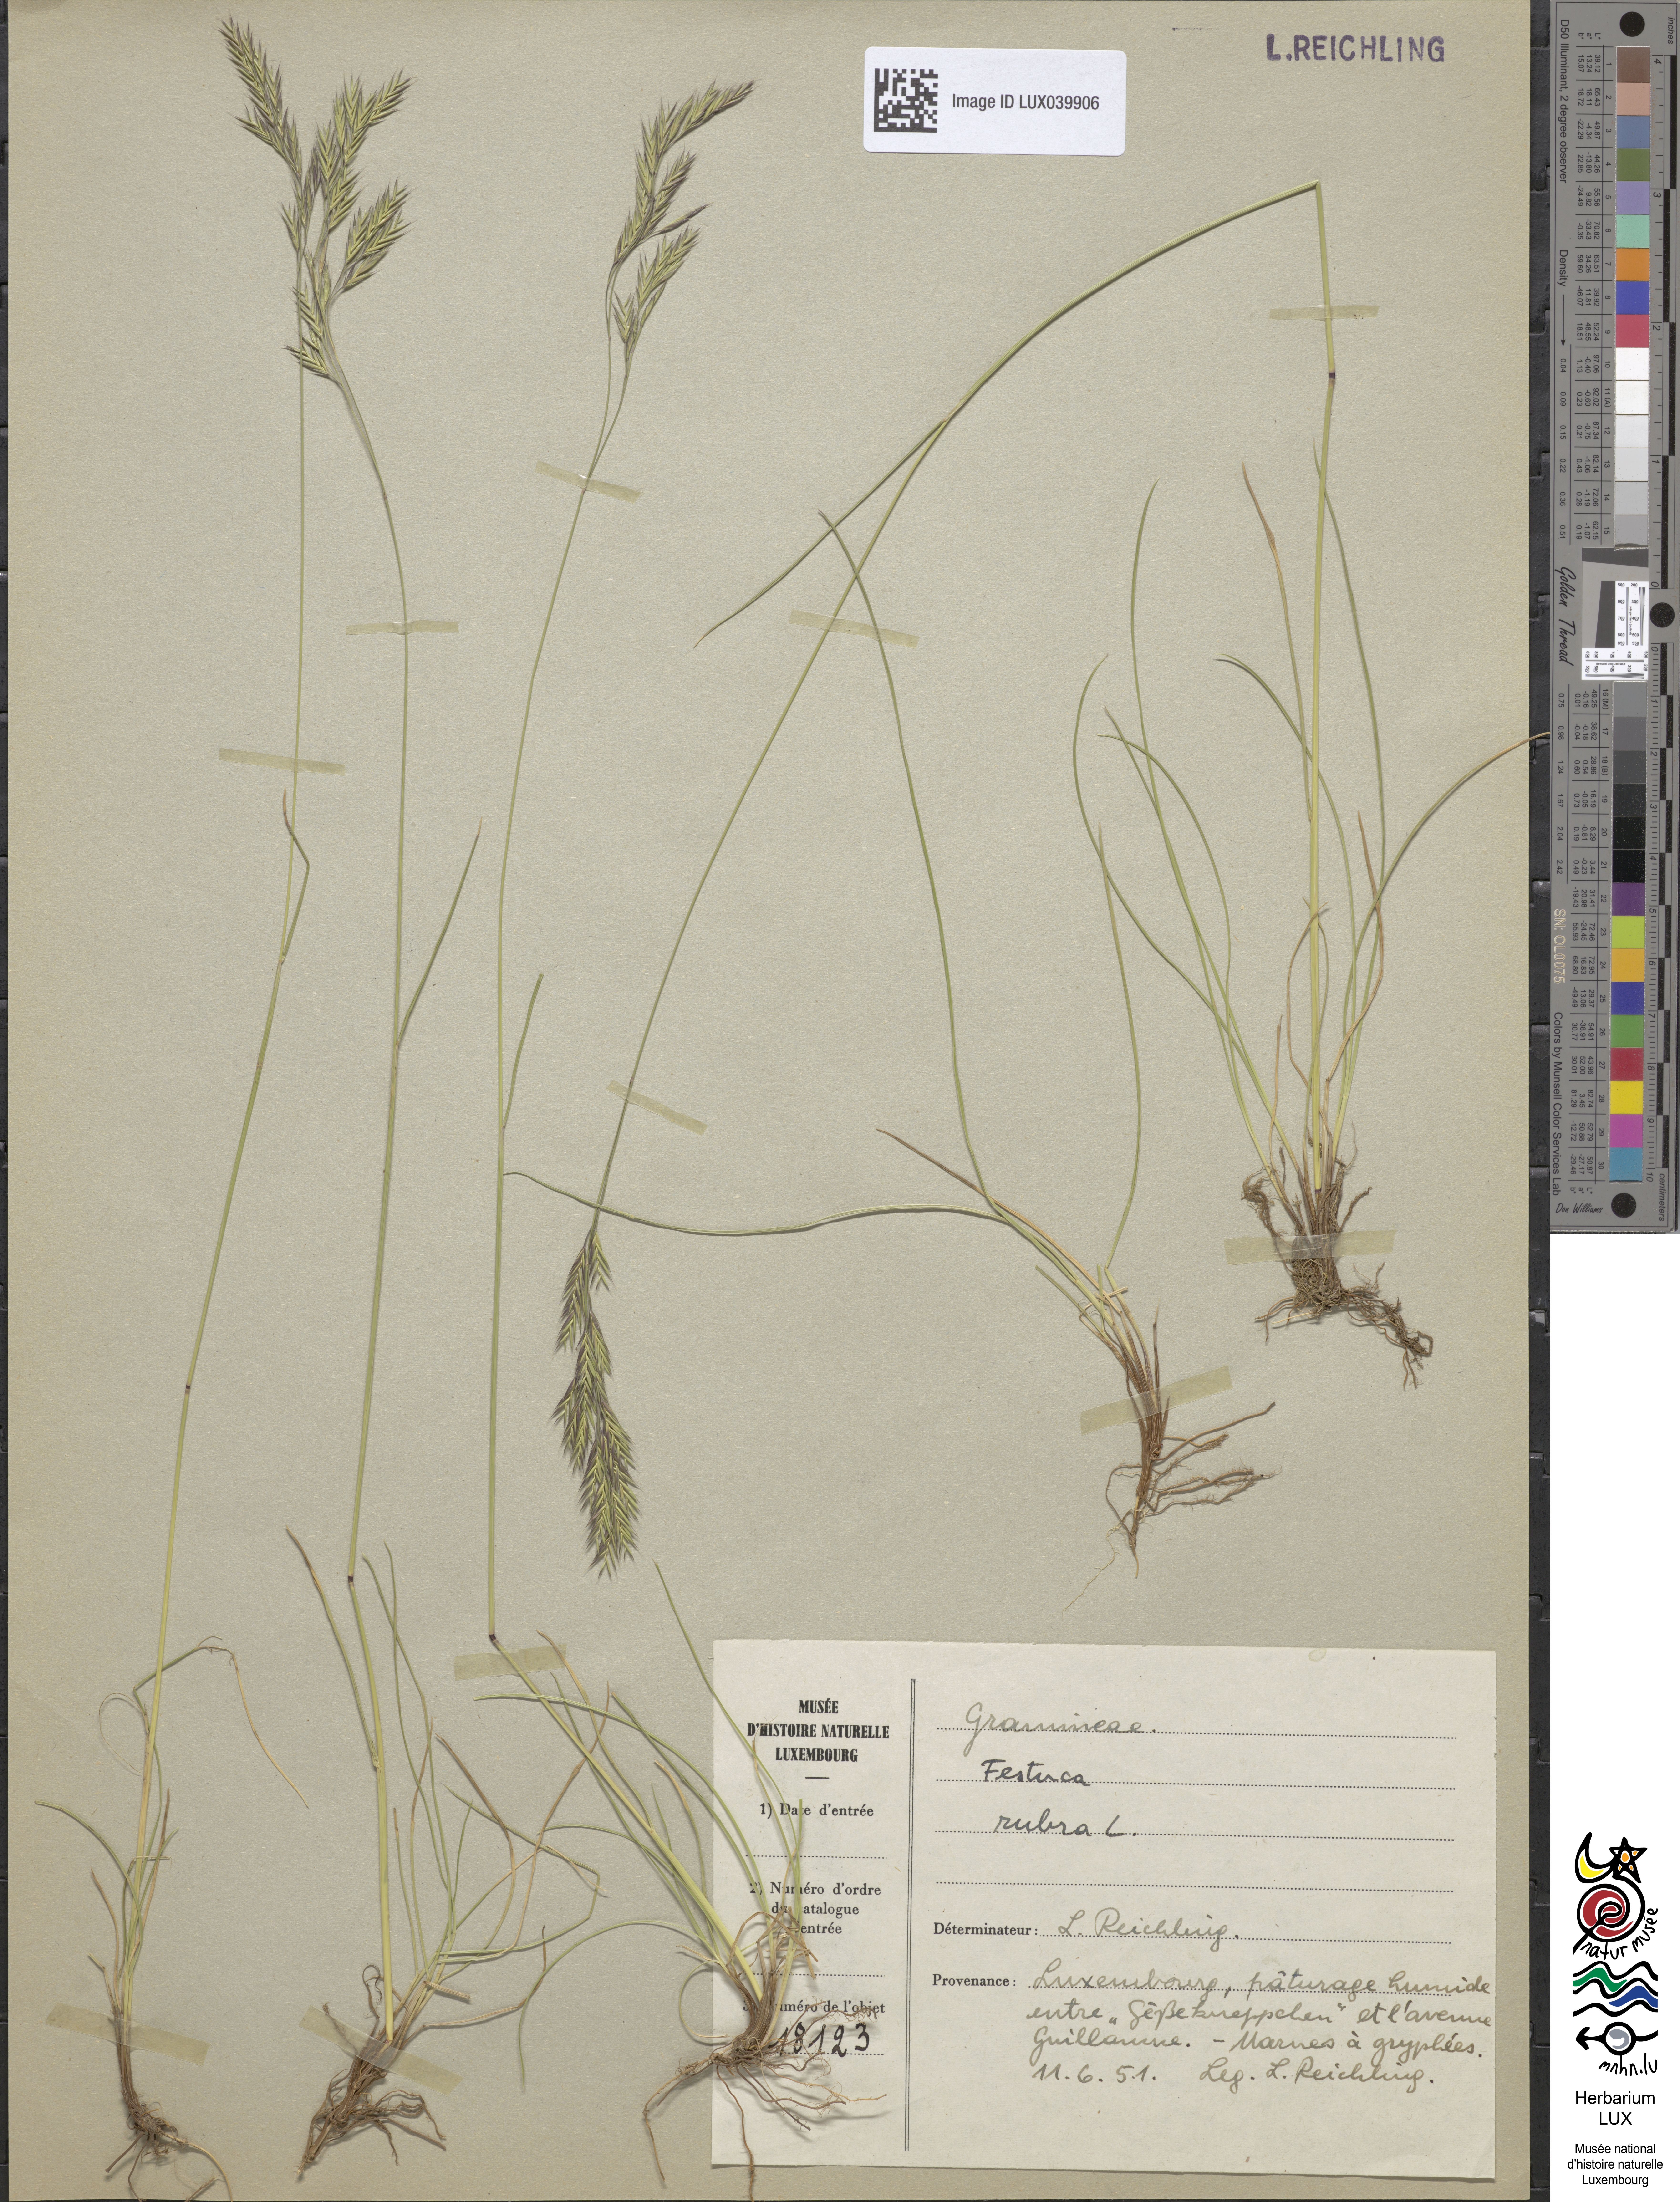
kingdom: Plantae
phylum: Tracheophyta
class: Liliopsida
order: Poales
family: Poaceae
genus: Festuca
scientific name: Festuca rubra
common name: Red fescue
